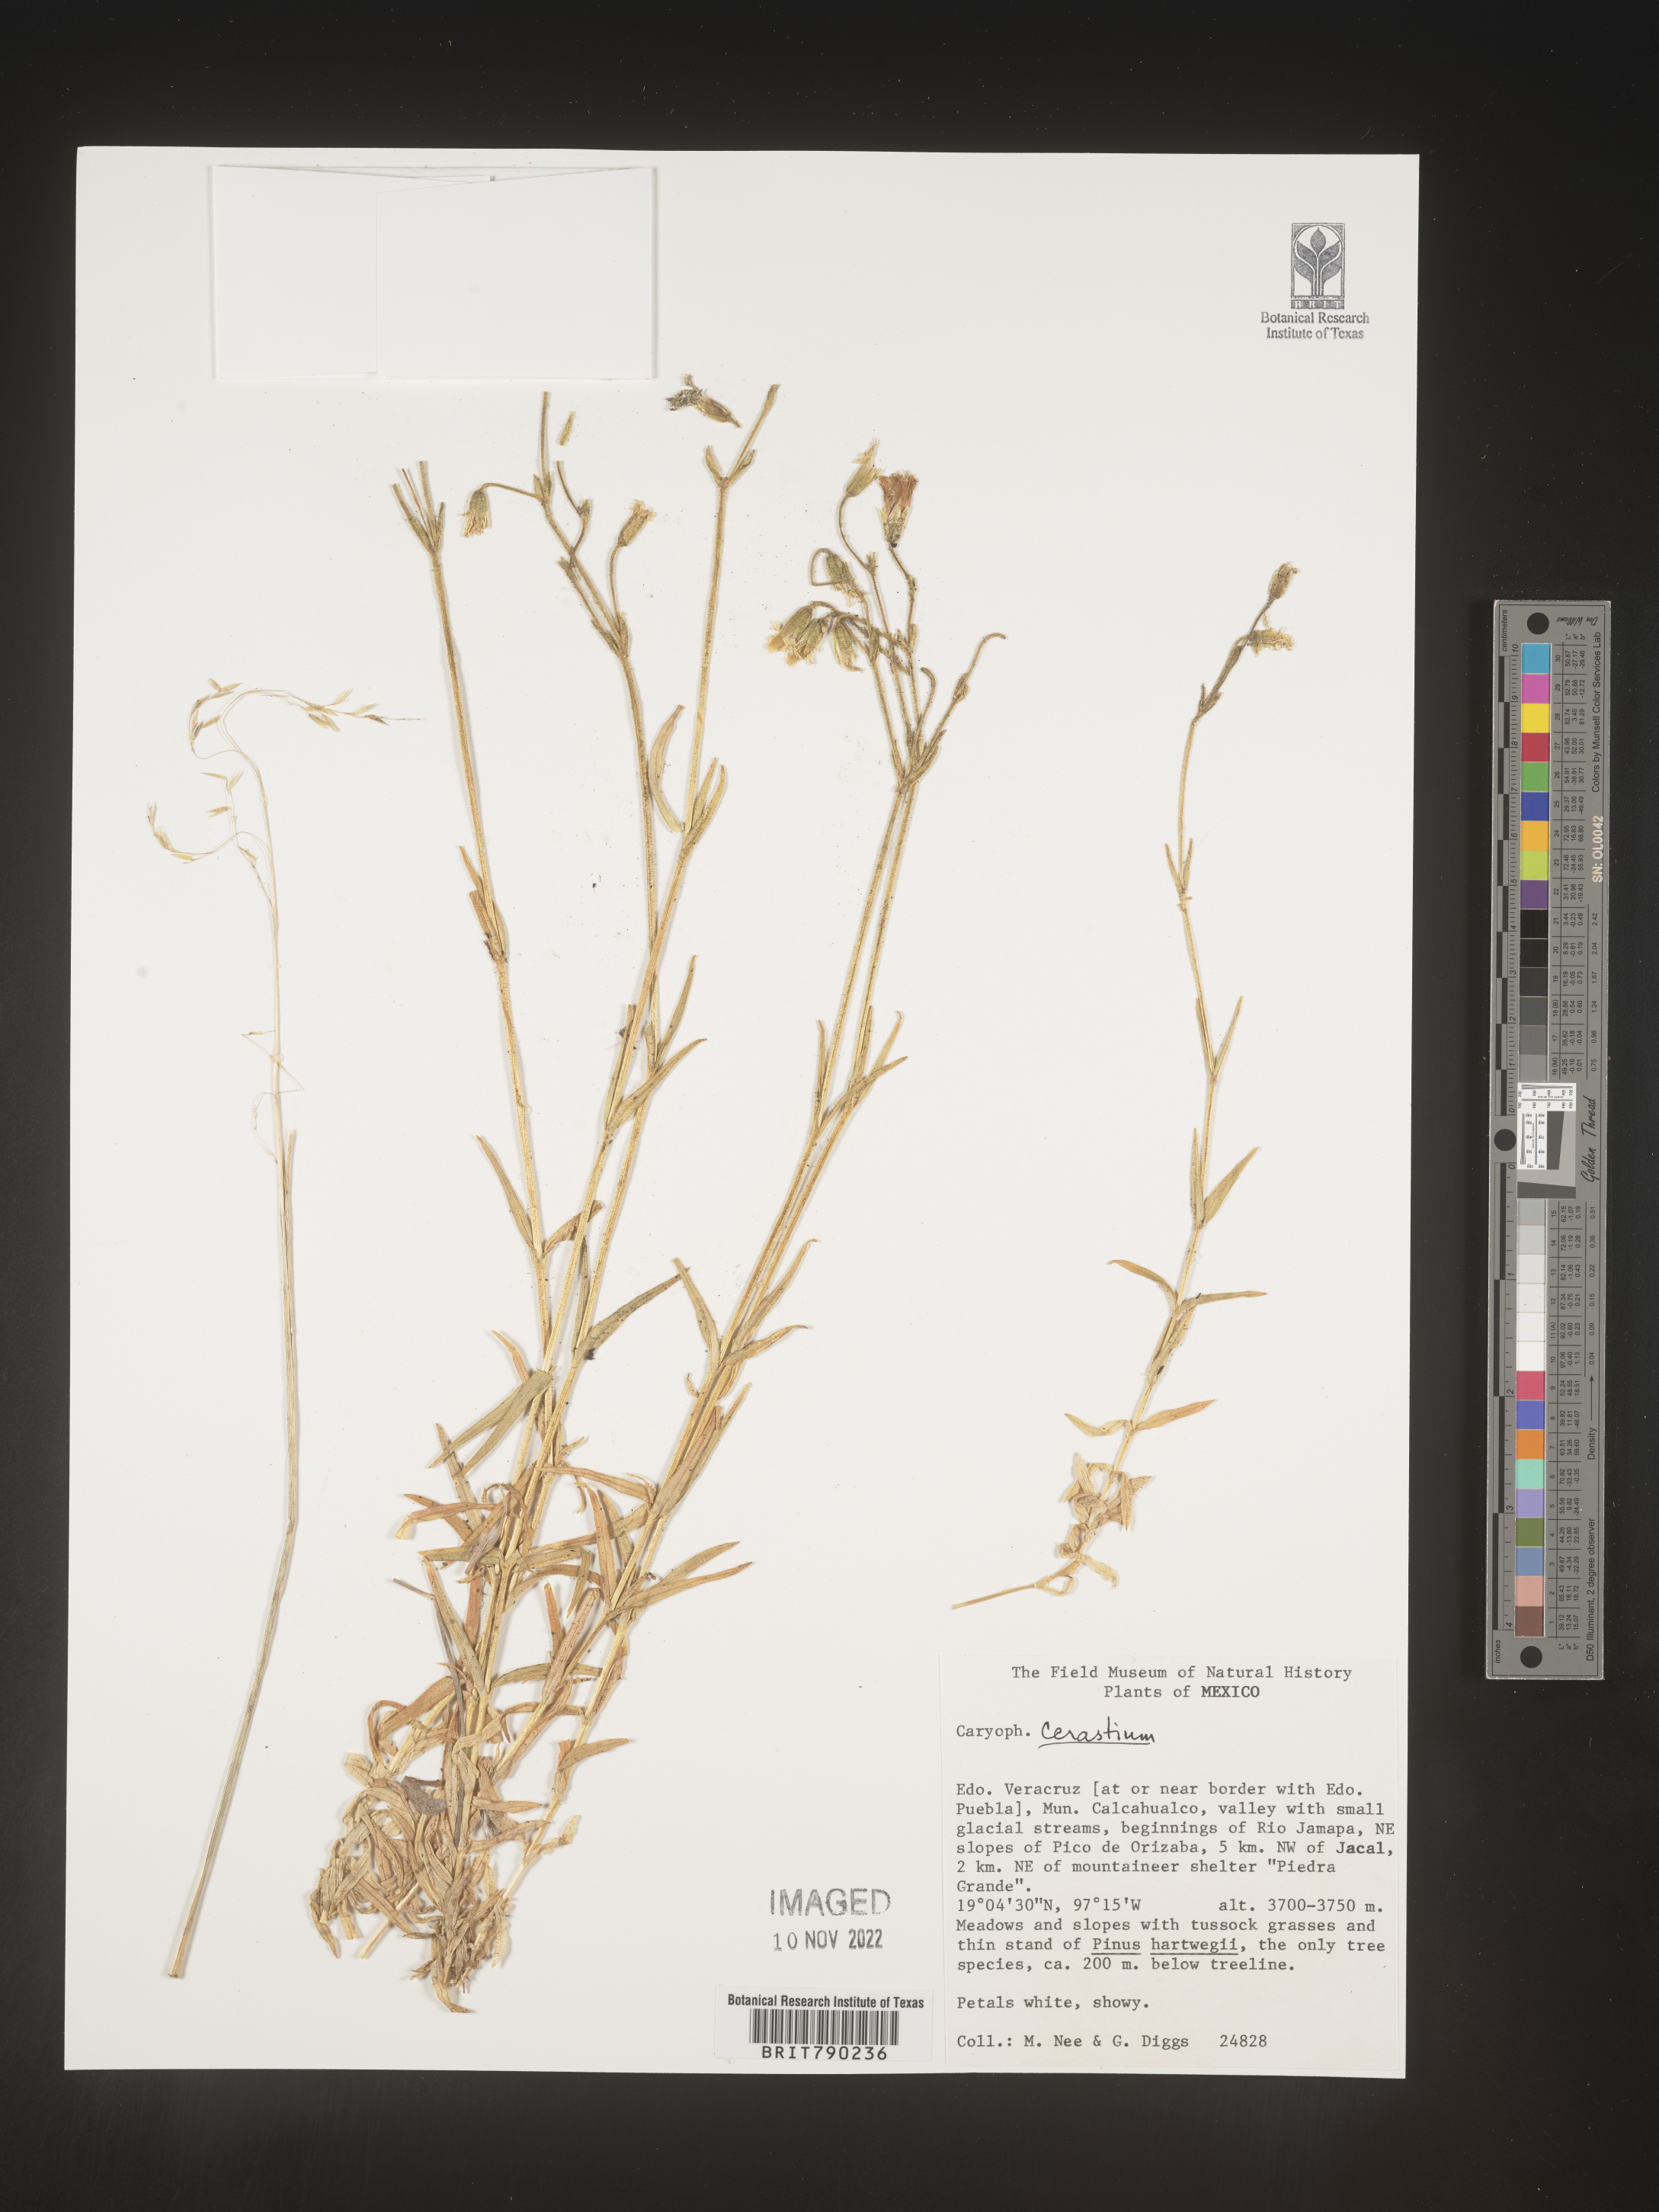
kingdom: Plantae
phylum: Tracheophyta
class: Magnoliopsida
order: Caryophyllales
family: Caryophyllaceae
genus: Cerastium
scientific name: Cerastium
